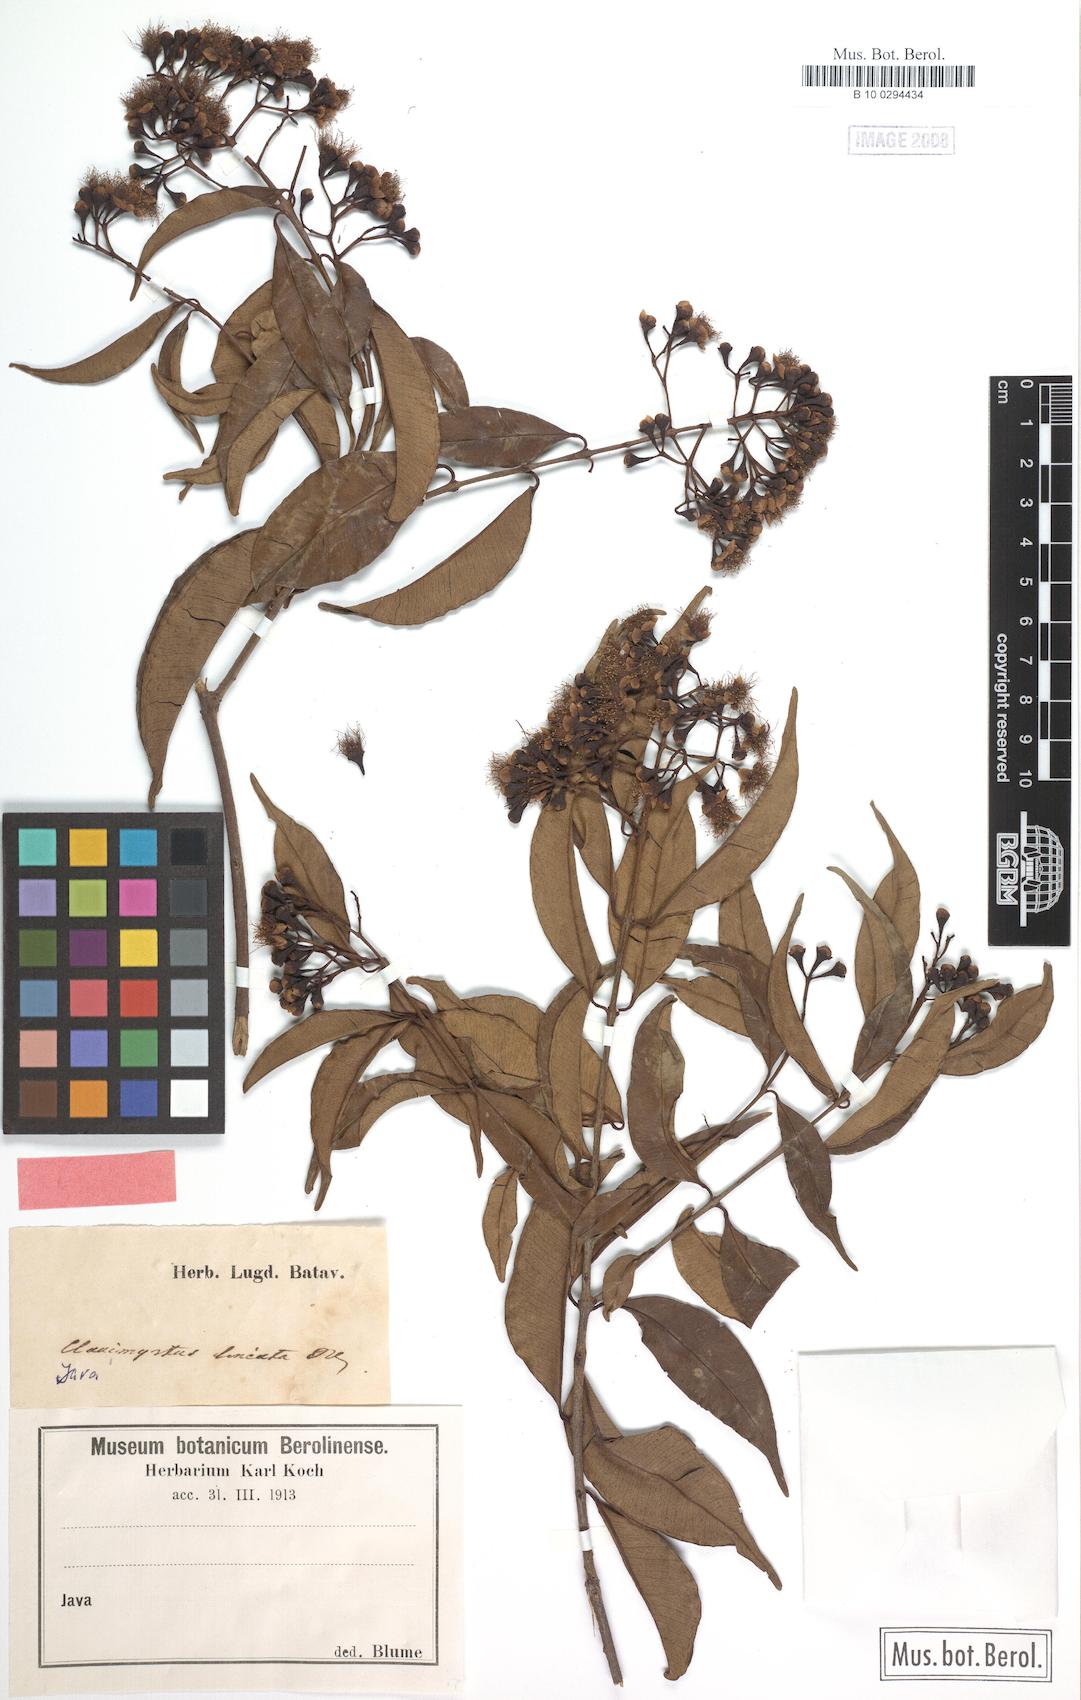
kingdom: Plantae
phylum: Tracheophyta
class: Magnoliopsida
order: Myrtales
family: Myrtaceae
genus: Syzygium
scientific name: Syzygium lineatum
